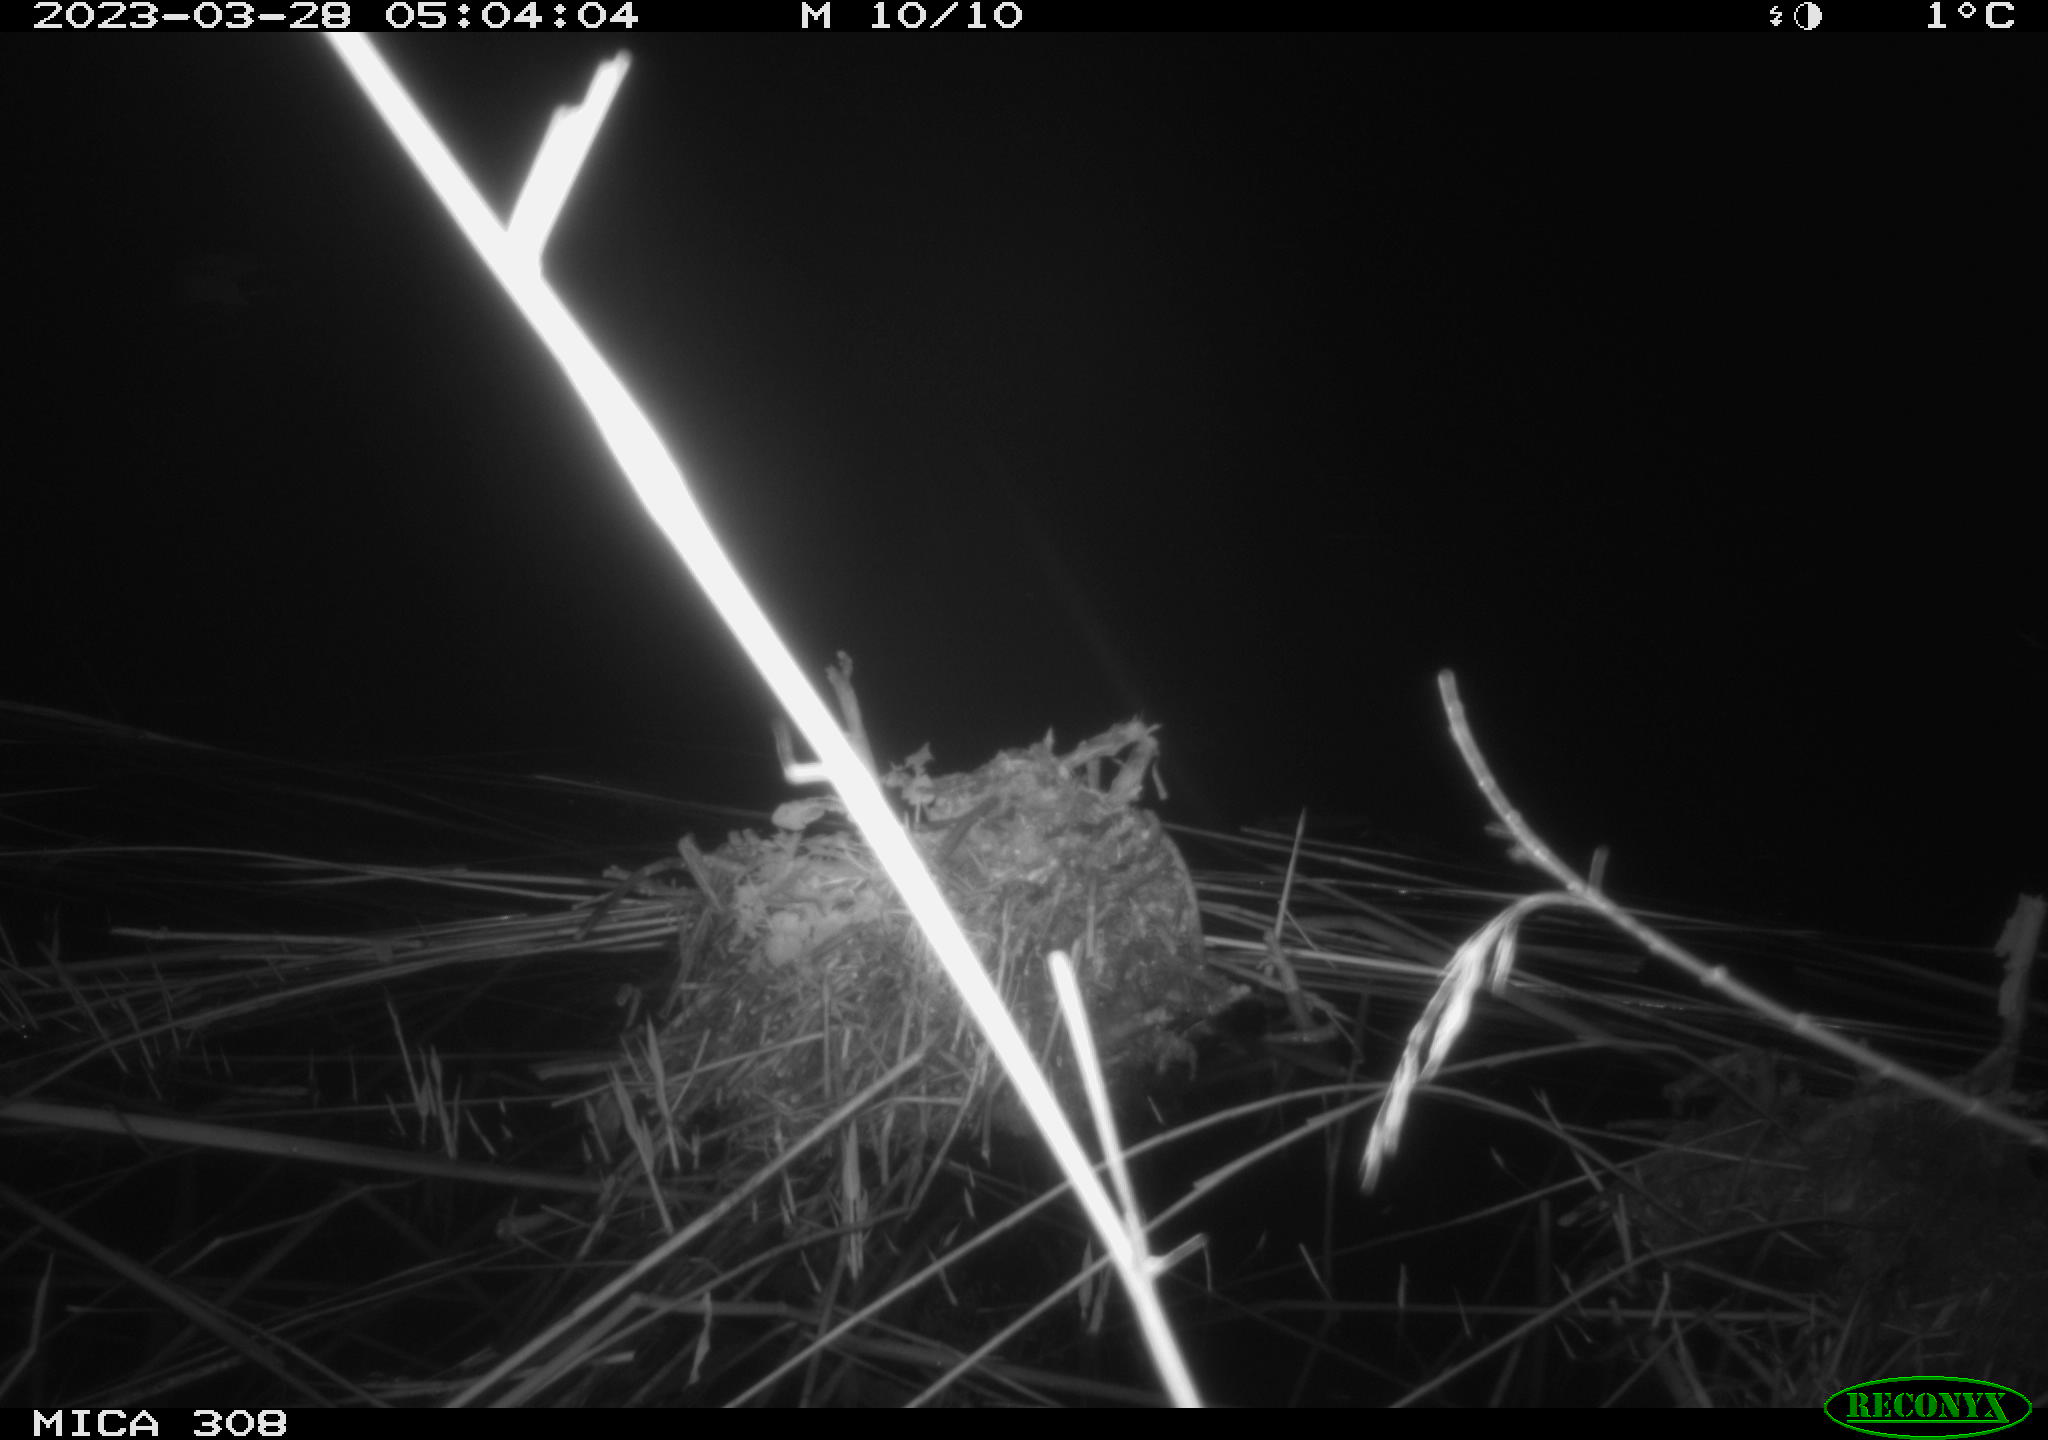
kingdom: Animalia
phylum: Chordata
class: Aves
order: Anseriformes
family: Anatidae
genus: Anas
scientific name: Anas
